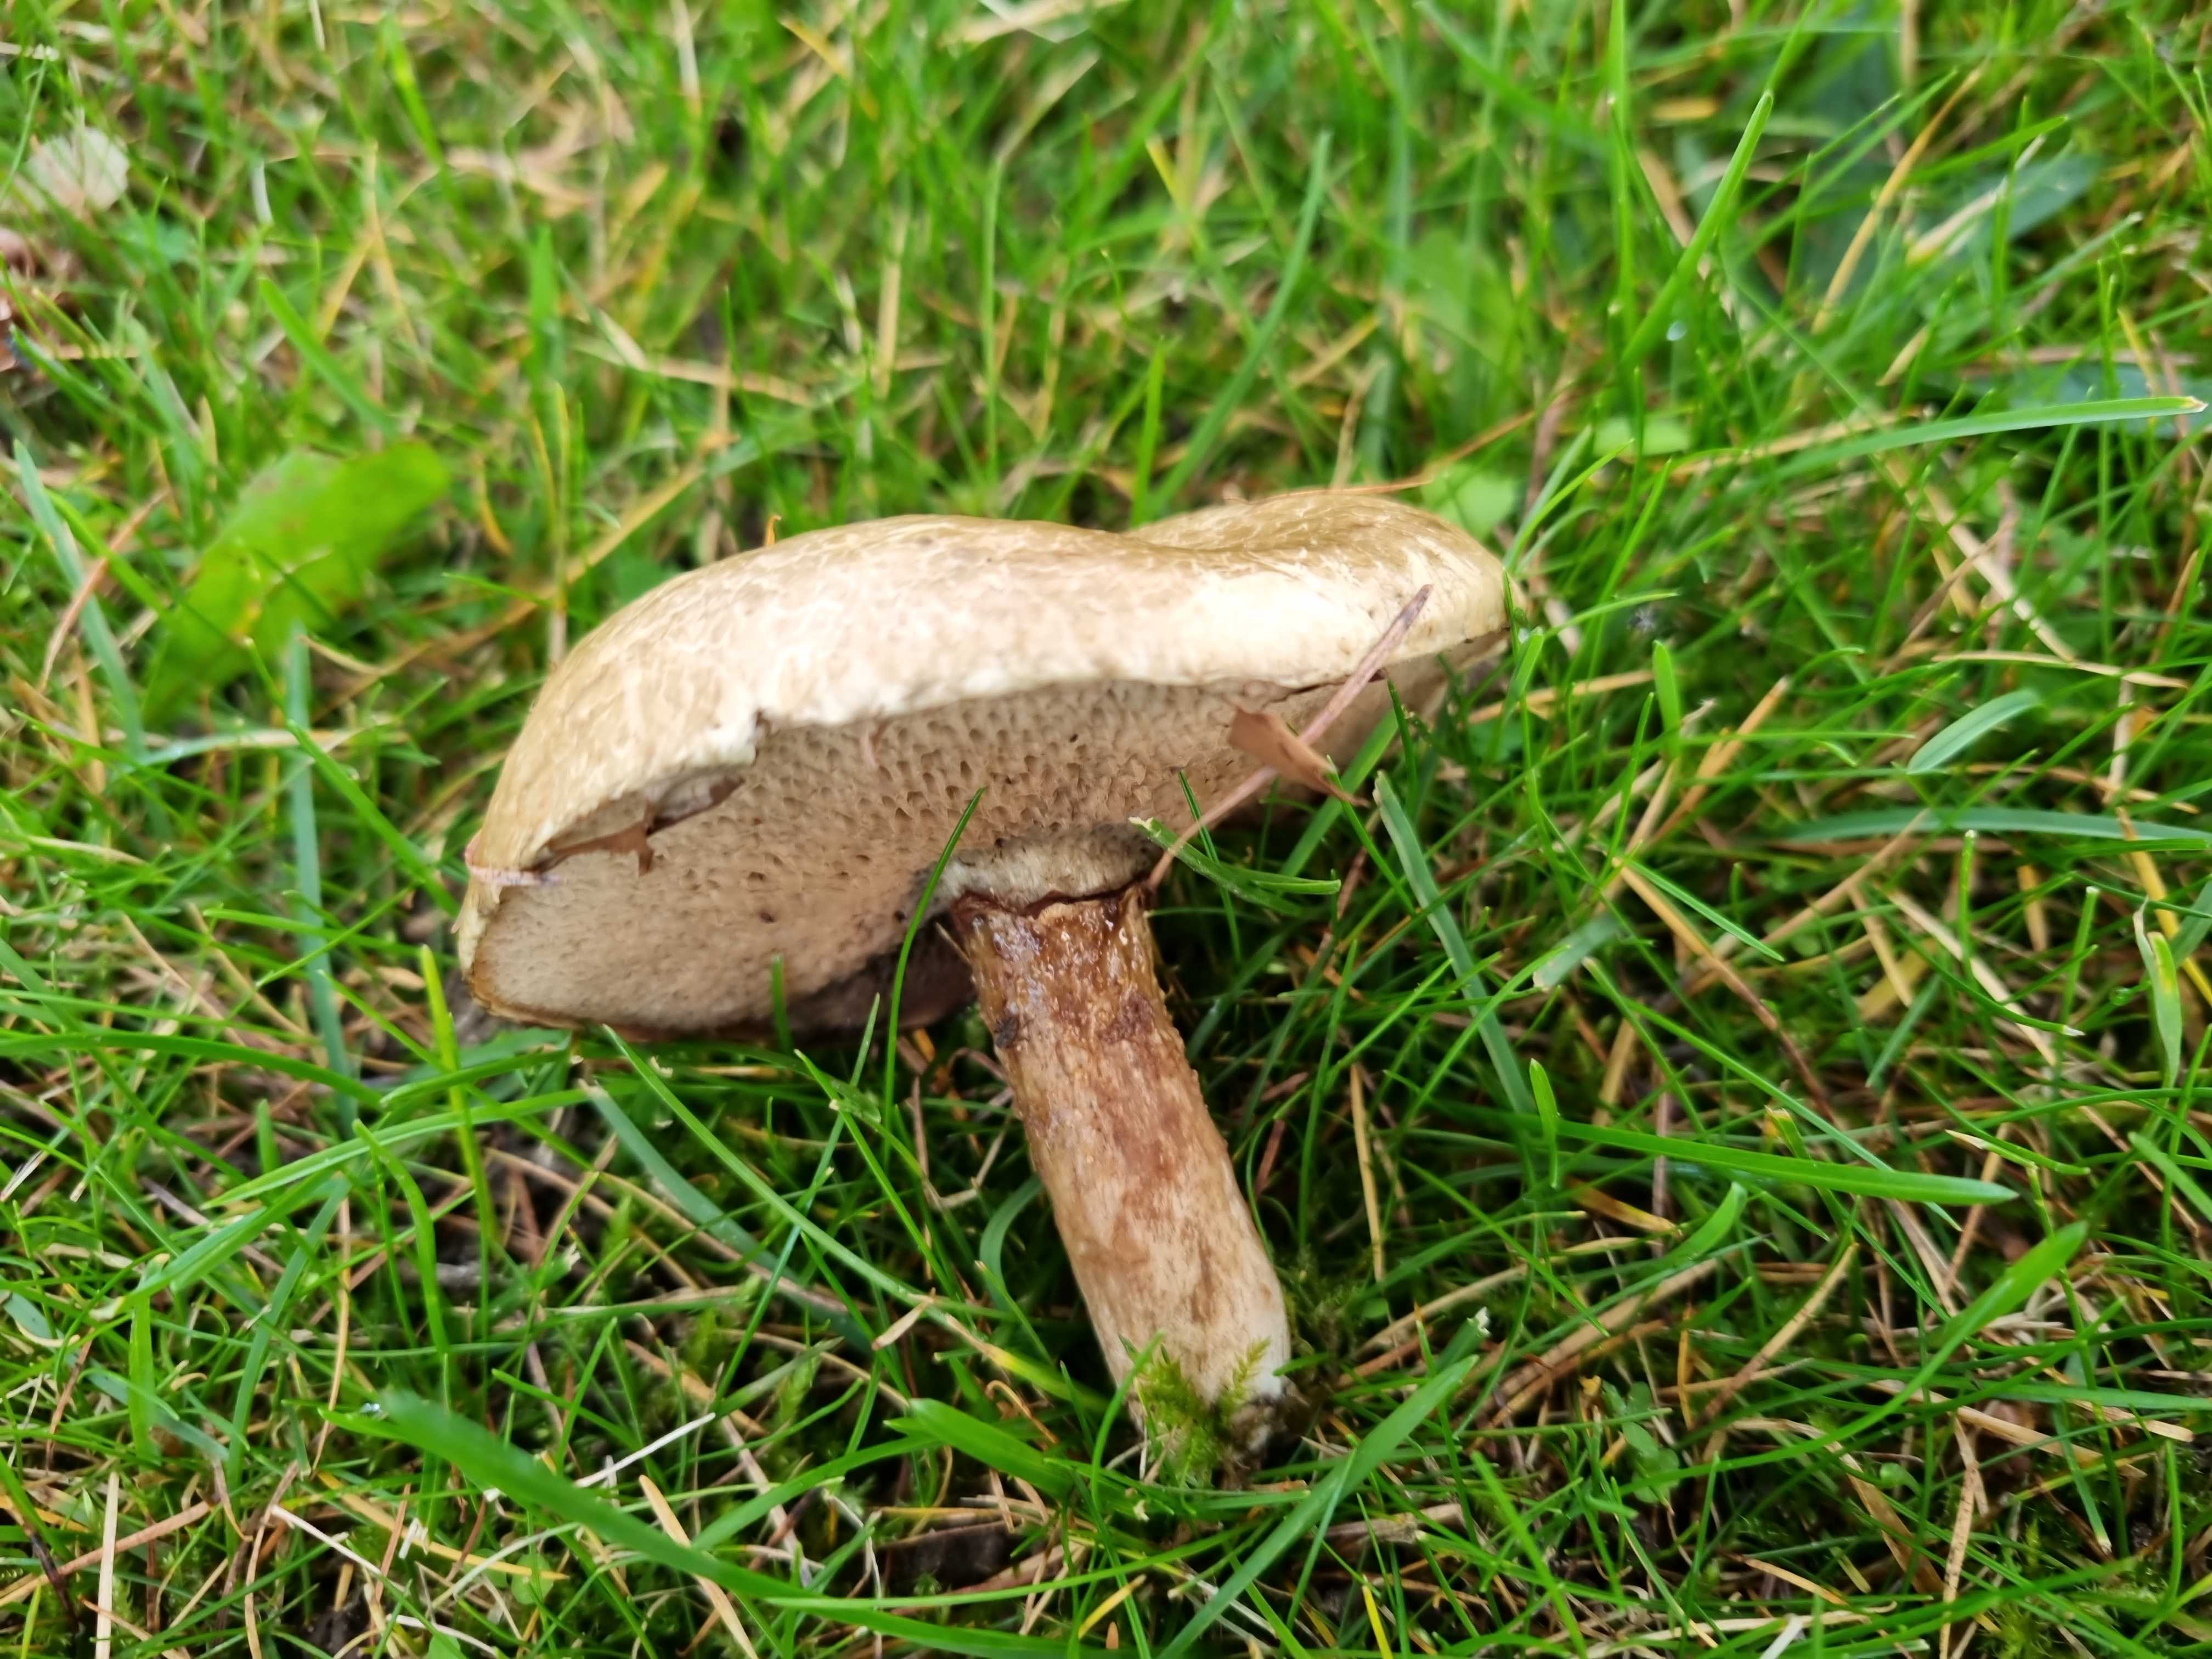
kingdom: Fungi
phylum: Basidiomycota
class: Agaricomycetes
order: Boletales
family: Suillaceae
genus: Suillus
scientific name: Suillus viscidus
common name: olivengrå slimrørhat
